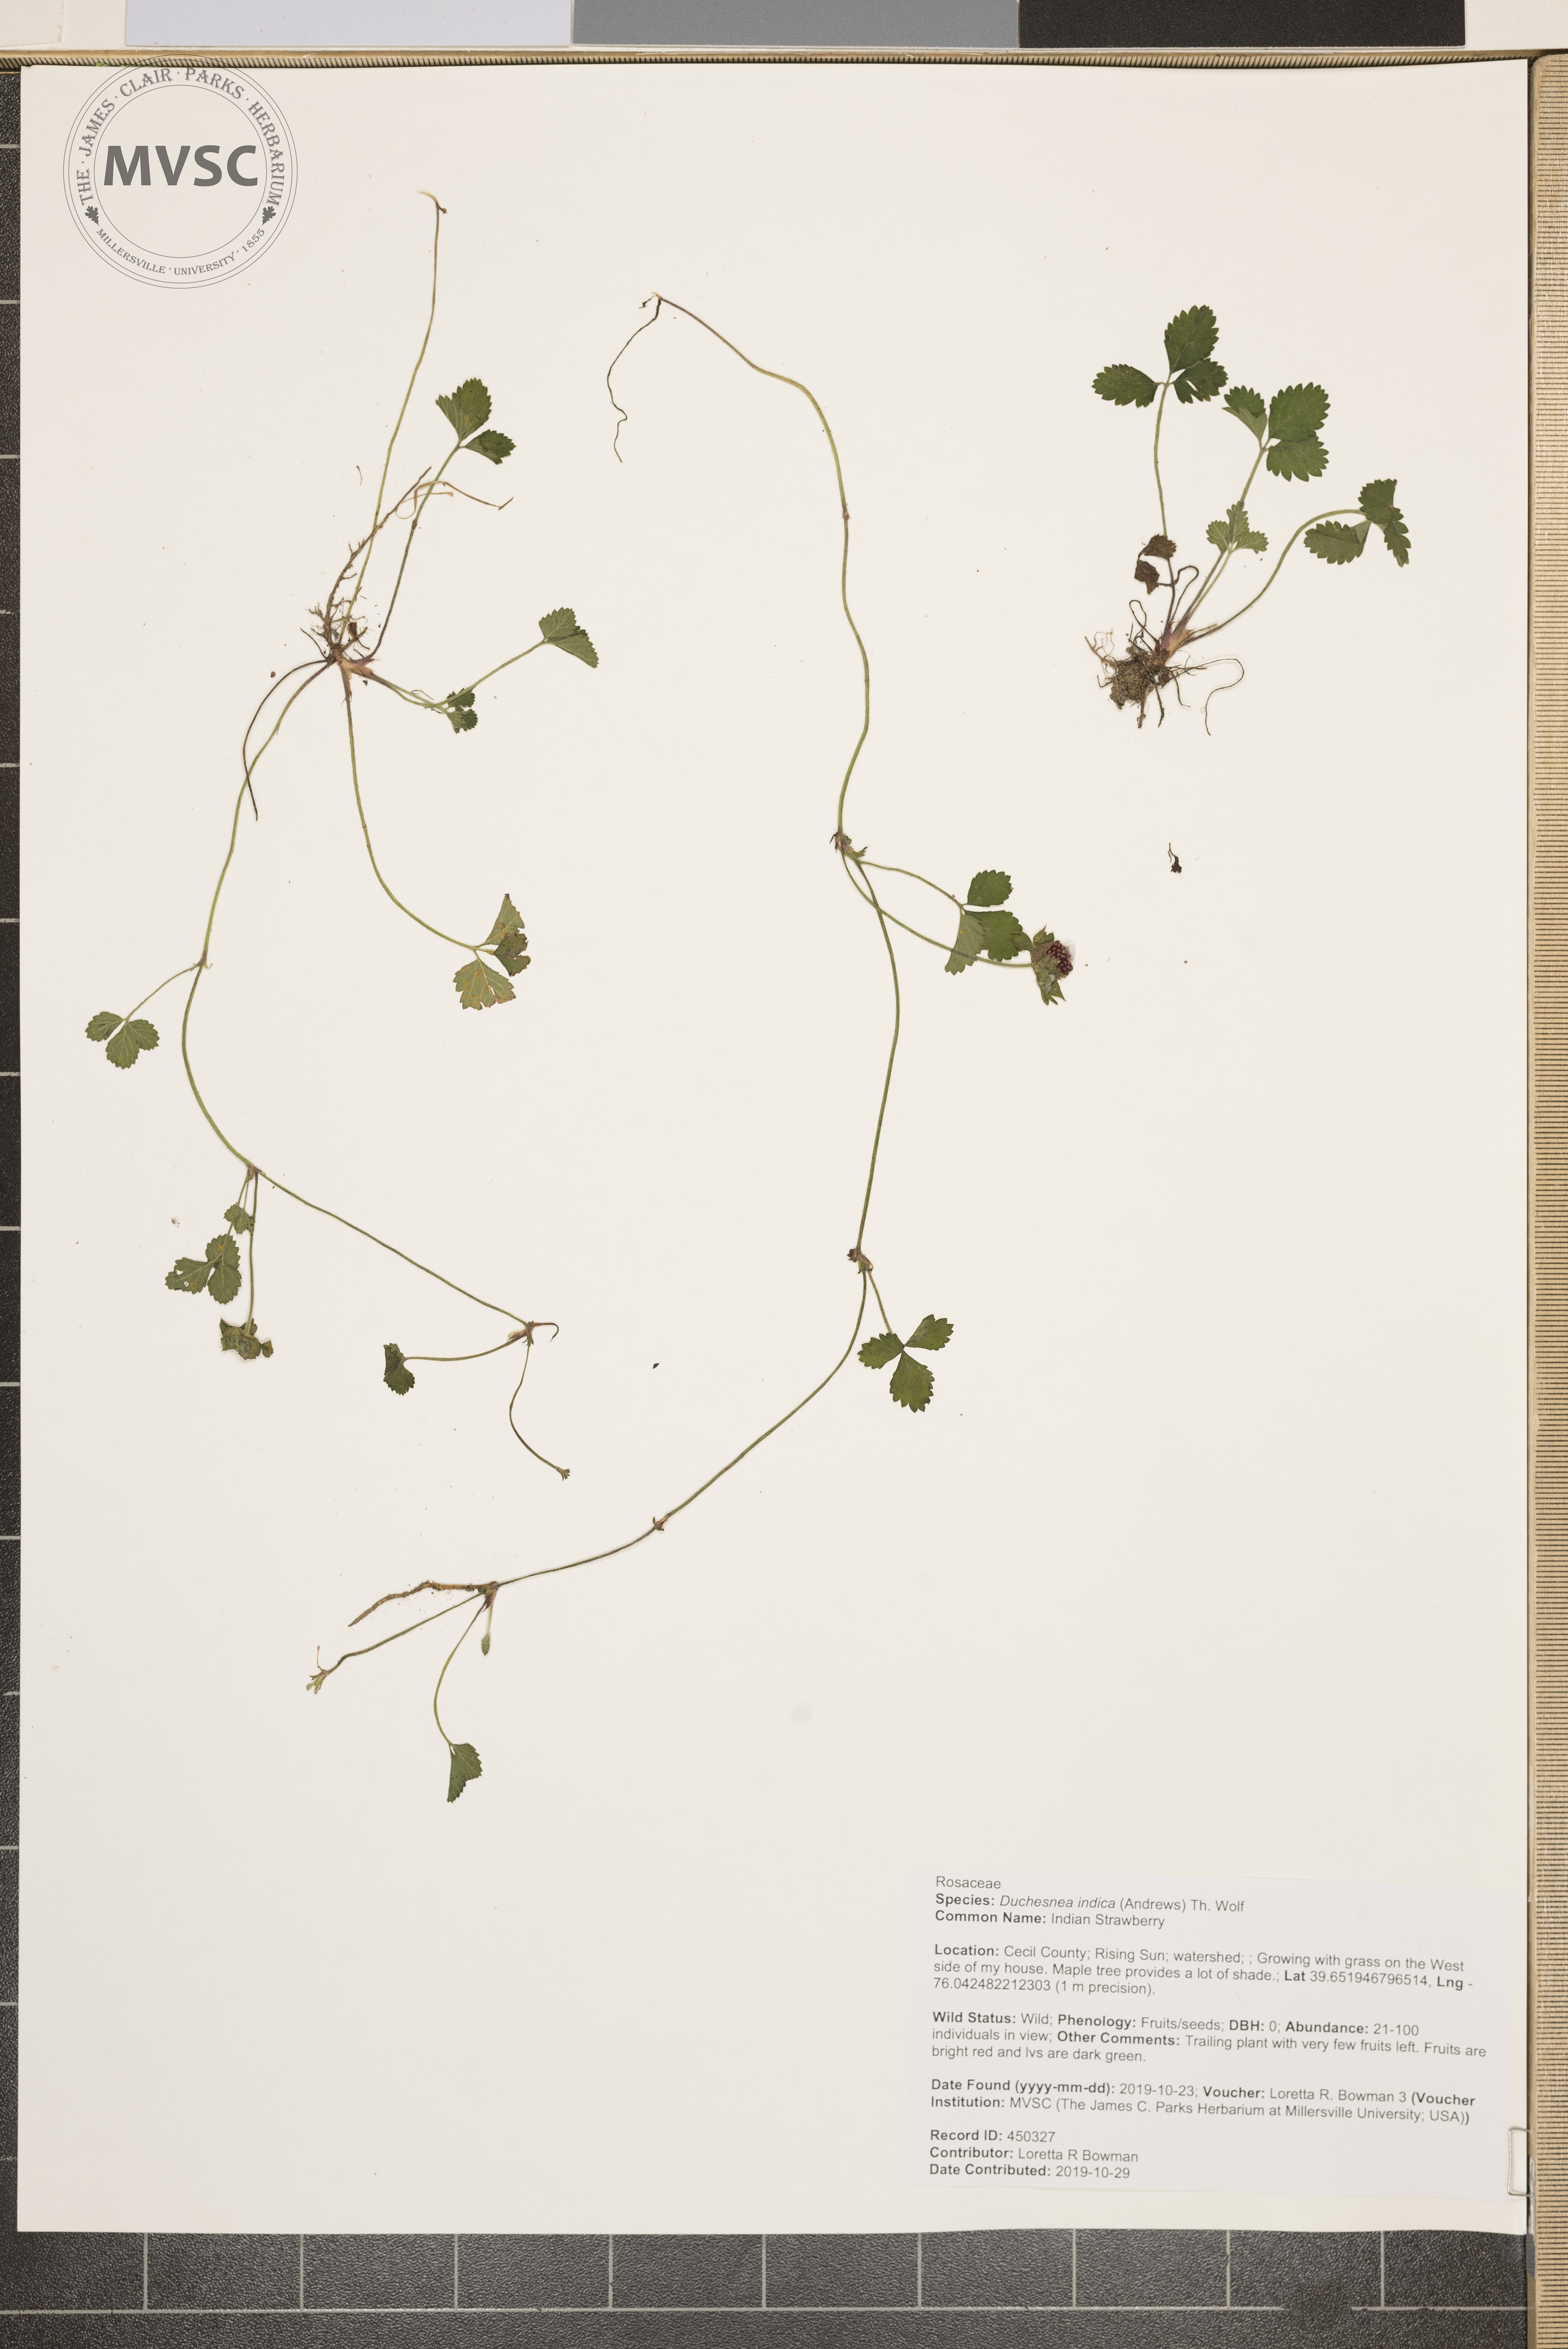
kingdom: Plantae
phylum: Tracheophyta
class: Magnoliopsida
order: Rosales
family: Rosaceae
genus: Potentilla
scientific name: Potentilla indica
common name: Indian Strawberry
